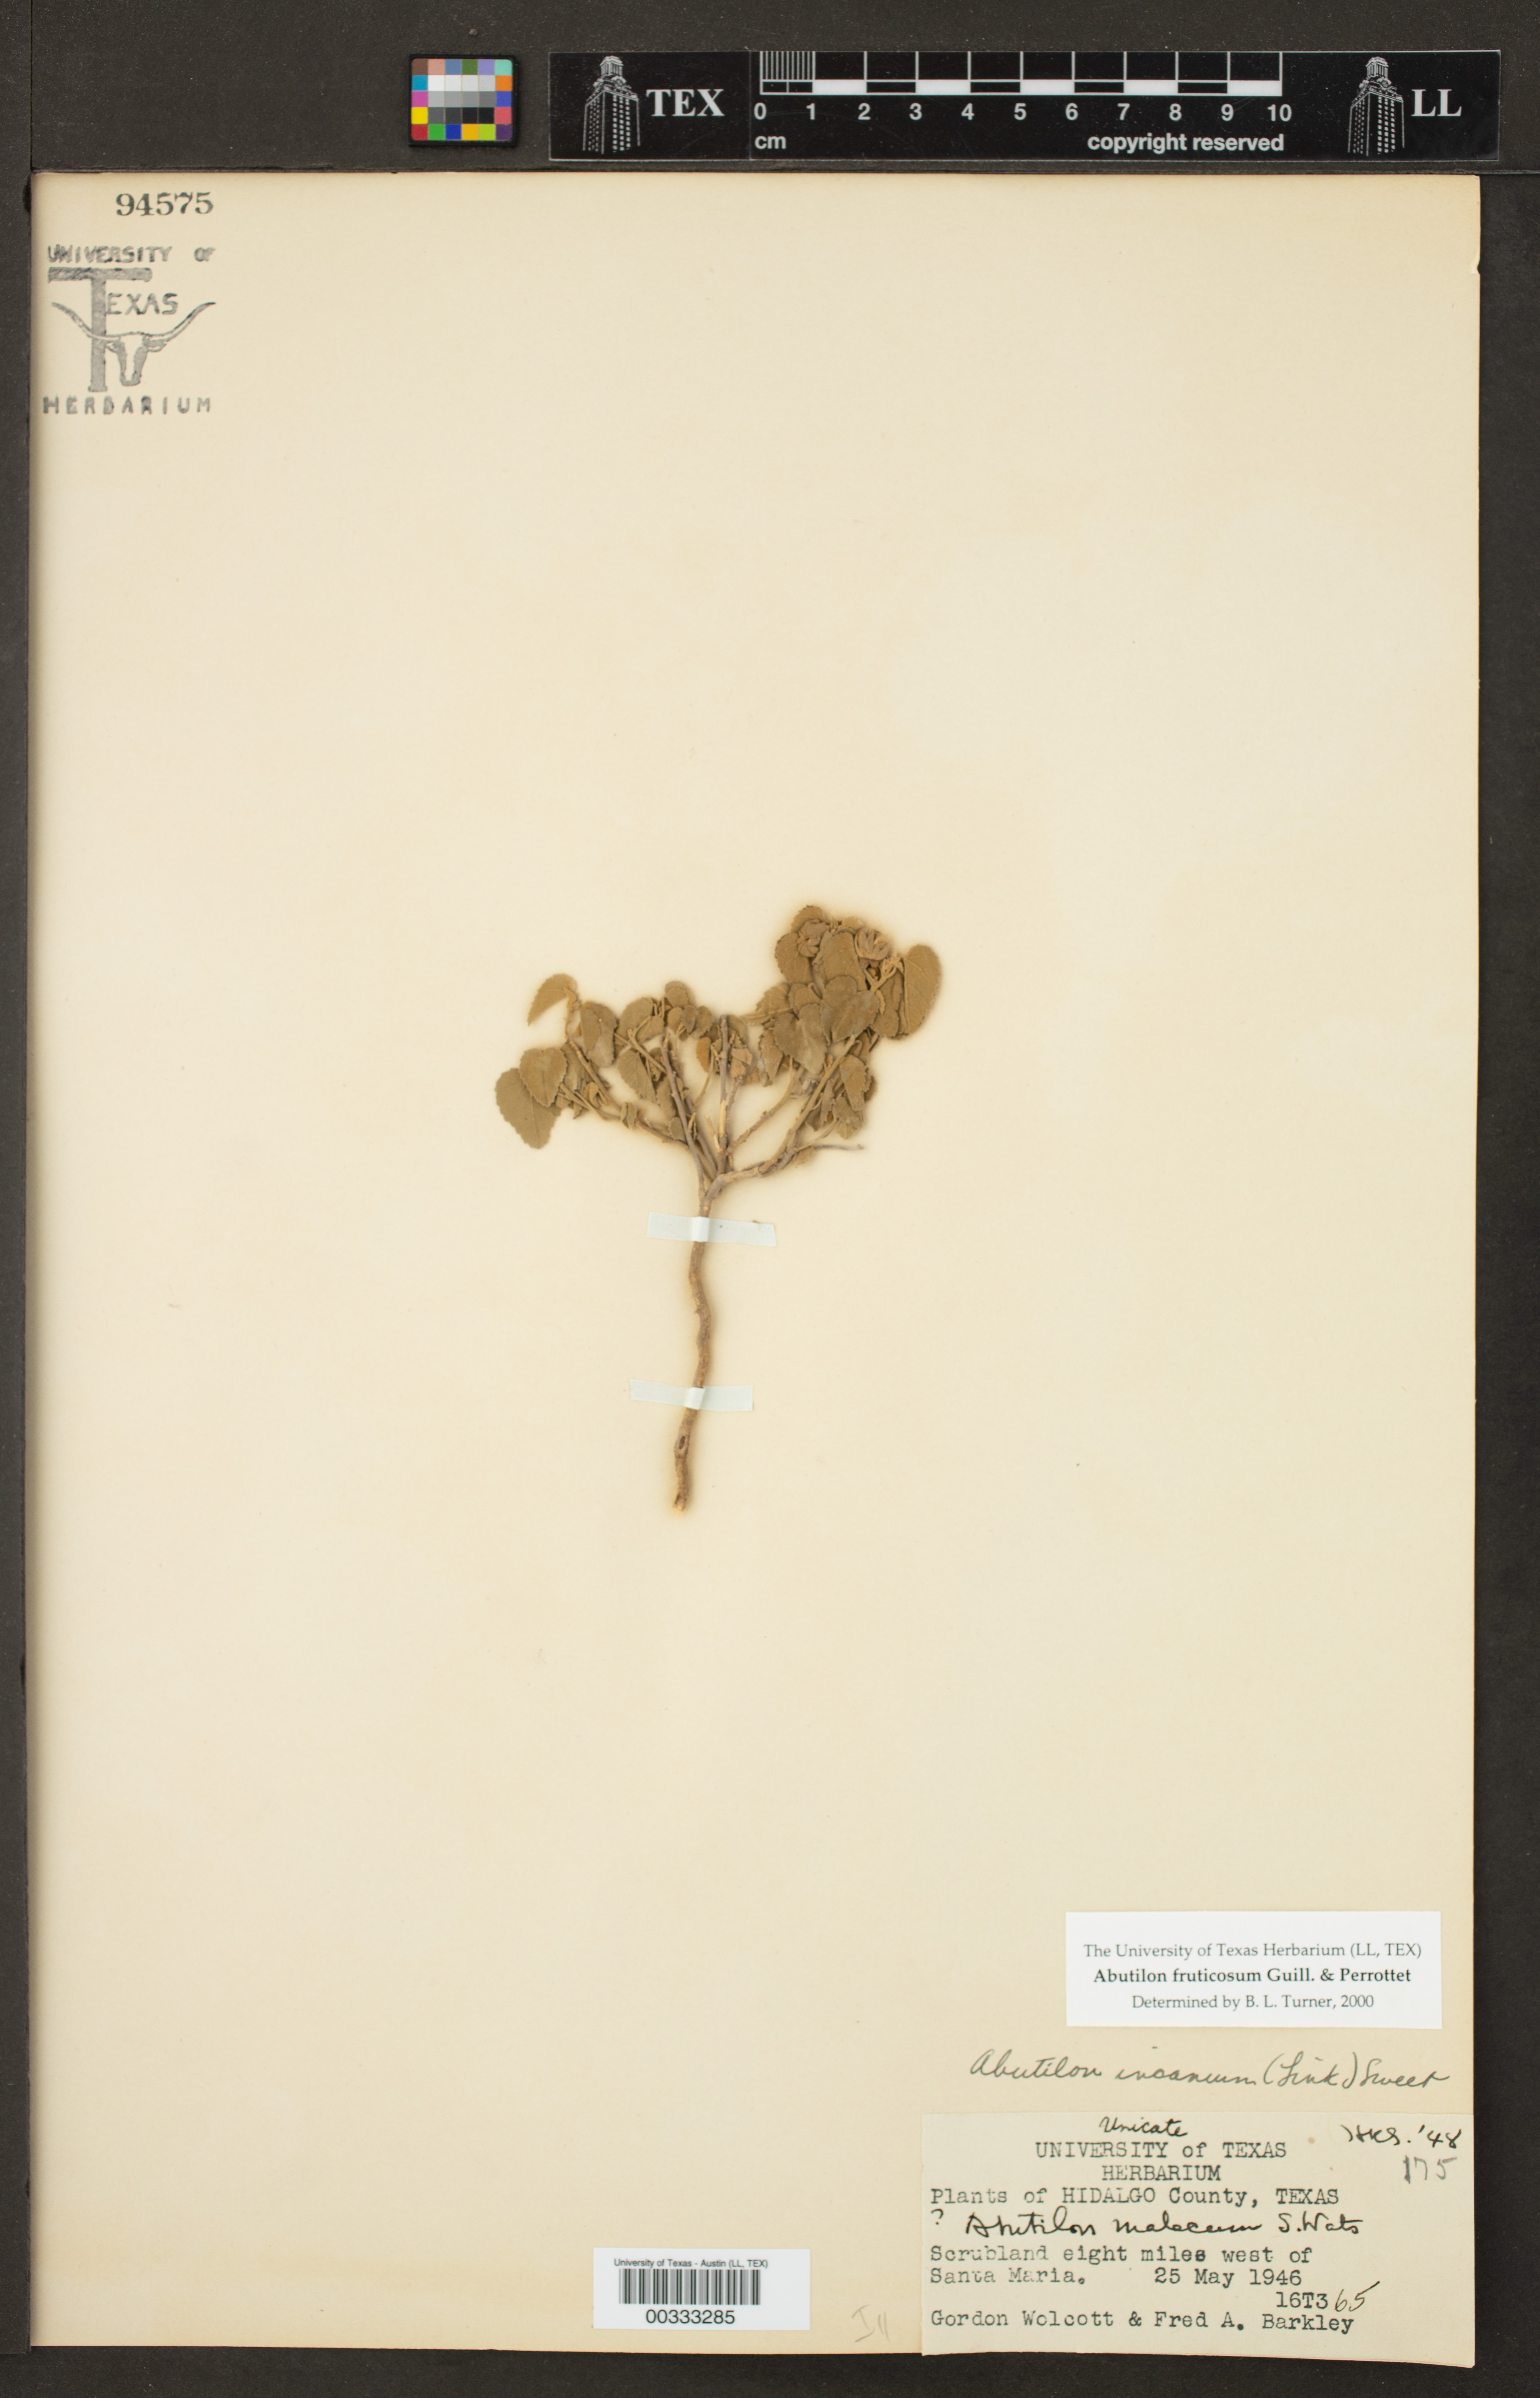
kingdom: Plantae
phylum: Tracheophyta
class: Magnoliopsida
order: Malvales
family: Malvaceae
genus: Abutilon
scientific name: Abutilon fruticosum
